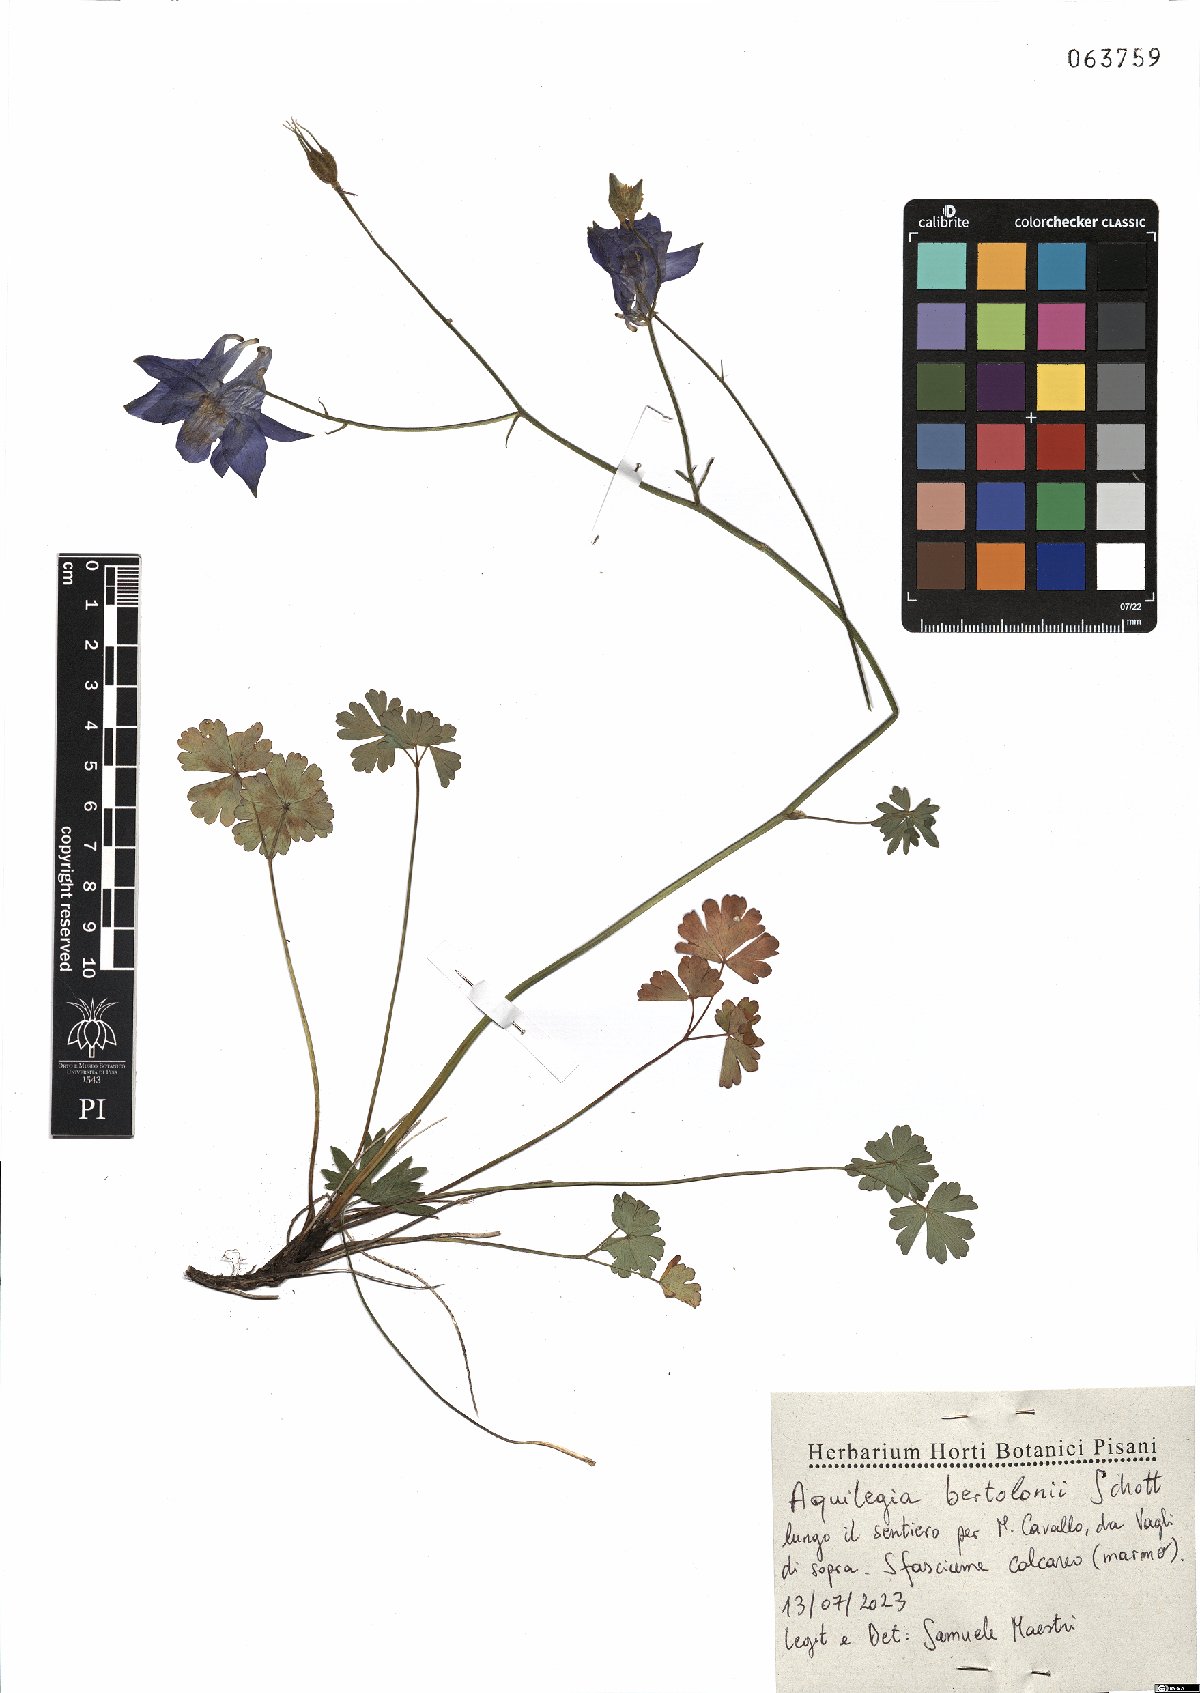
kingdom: Plantae
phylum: Tracheophyta
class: Magnoliopsida
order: Ranunculales
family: Ranunculaceae
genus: Aquilegia
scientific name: Aquilegia bertolonii
